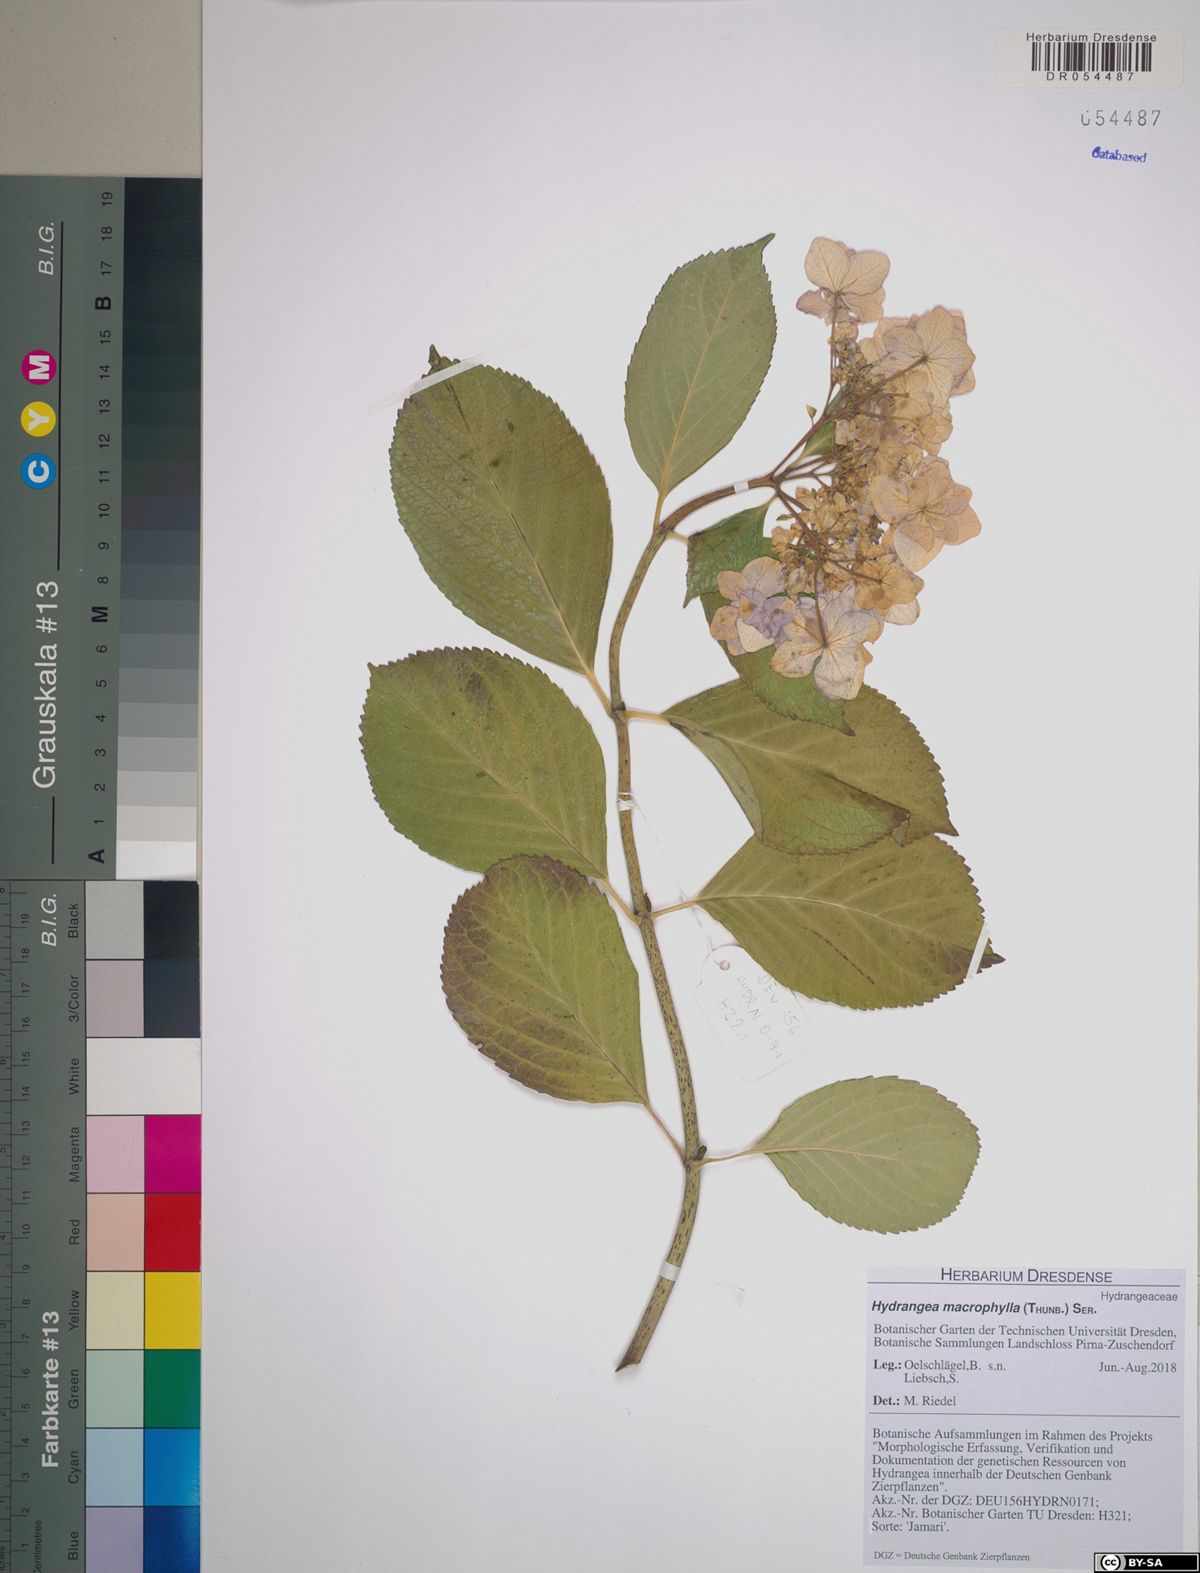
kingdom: Plantae
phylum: Tracheophyta
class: Magnoliopsida
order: Cornales
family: Hydrangeaceae
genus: Hydrangea
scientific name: Hydrangea macrophylla
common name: Hydrangea
